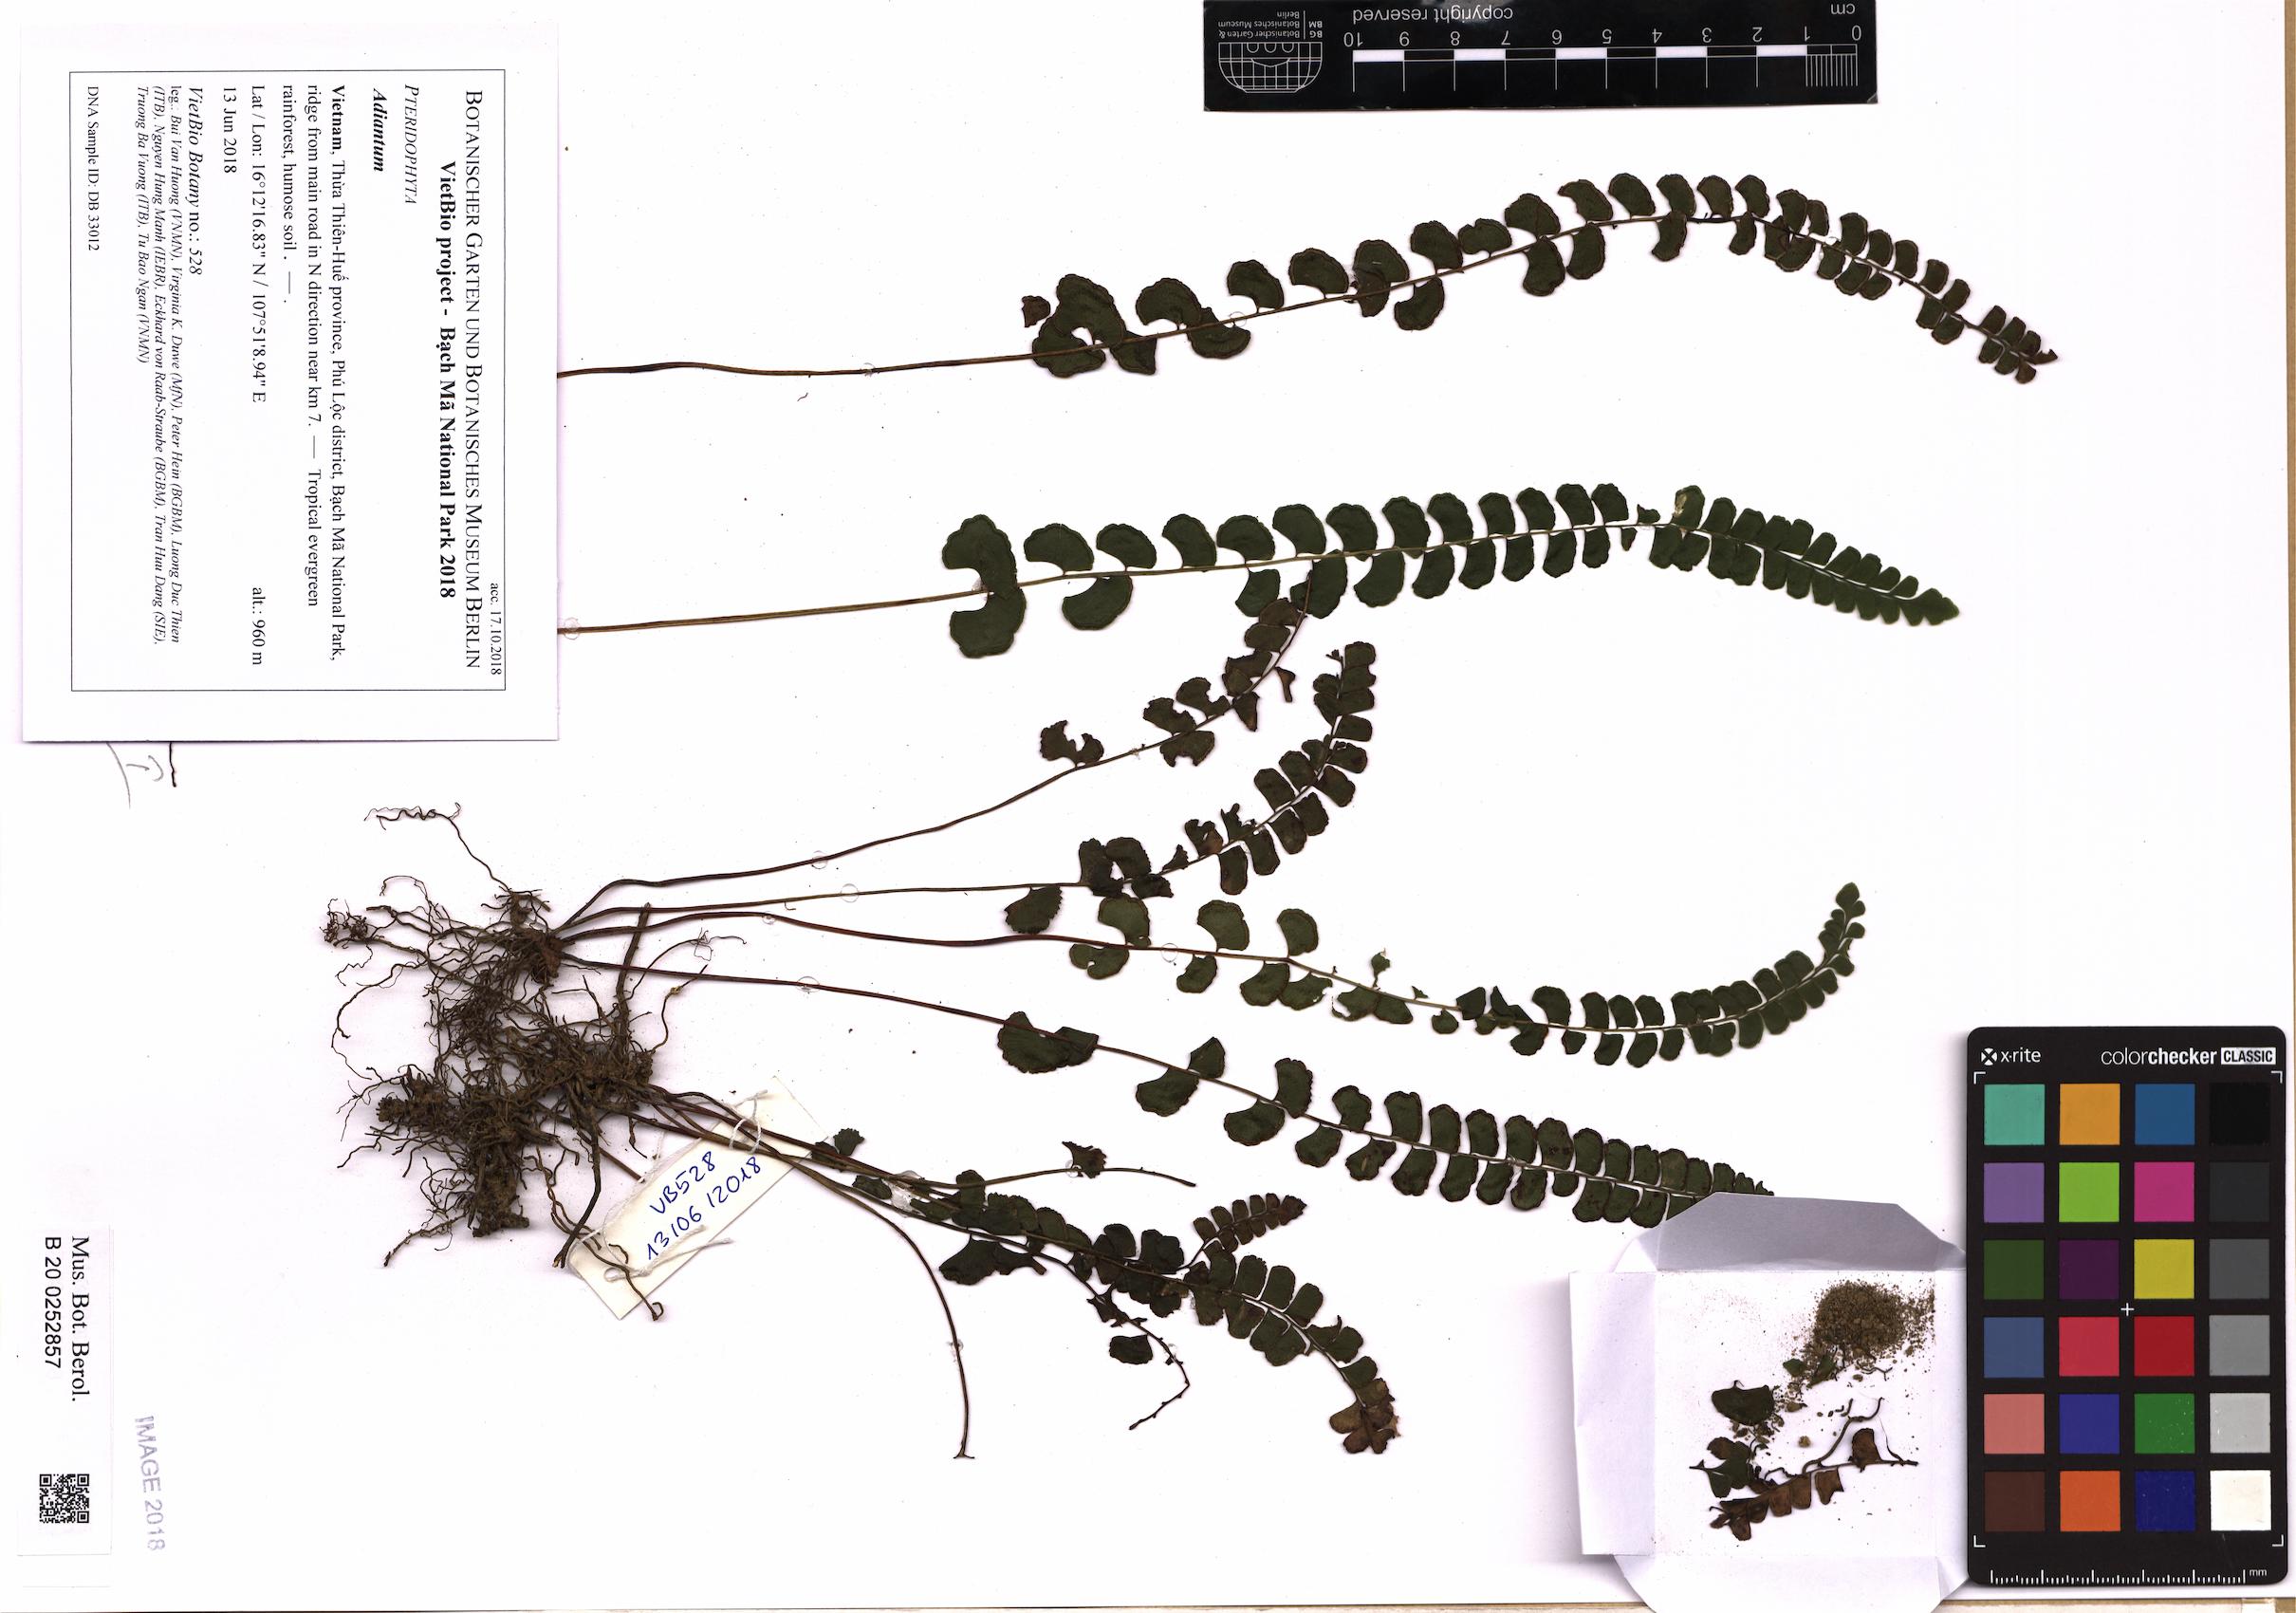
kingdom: Plantae
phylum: Tracheophyta
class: Polypodiopsida
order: Polypodiales
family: Pteridaceae
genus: Adiantum
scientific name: Adiantum
